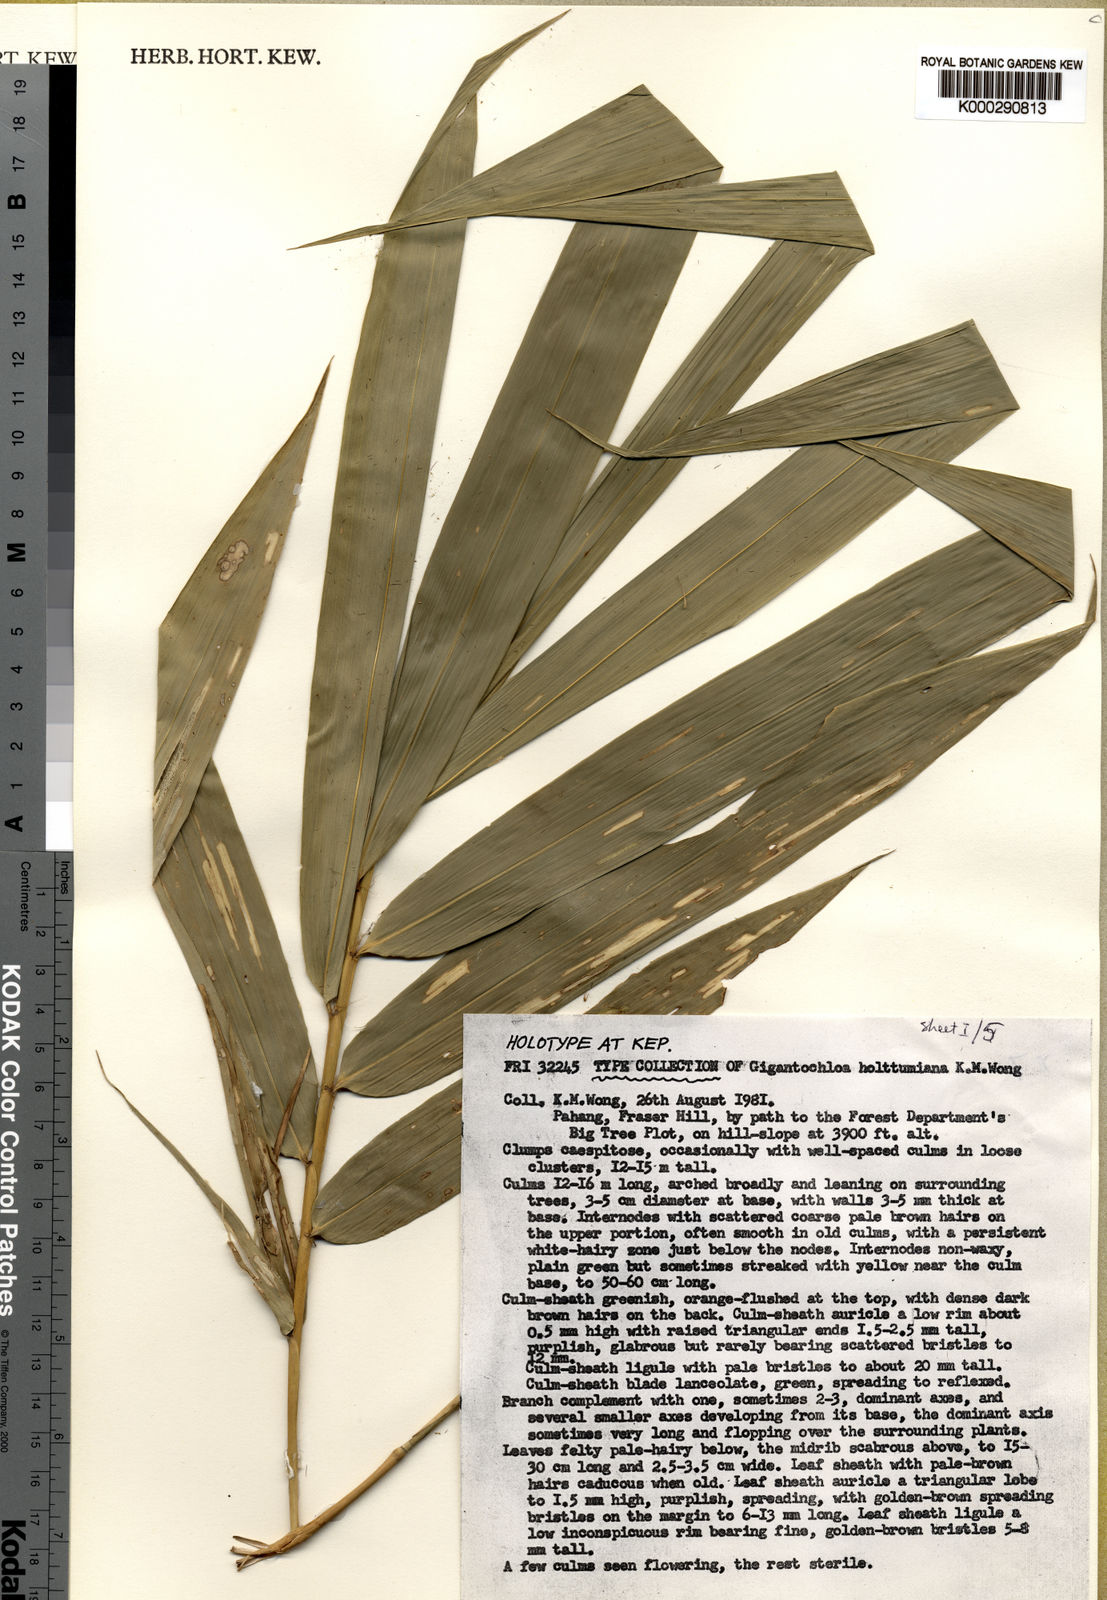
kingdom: Plantae
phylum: Tracheophyta
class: Liliopsida
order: Poales
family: Poaceae
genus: Gigantochloa
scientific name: Gigantochloa holttumiana
